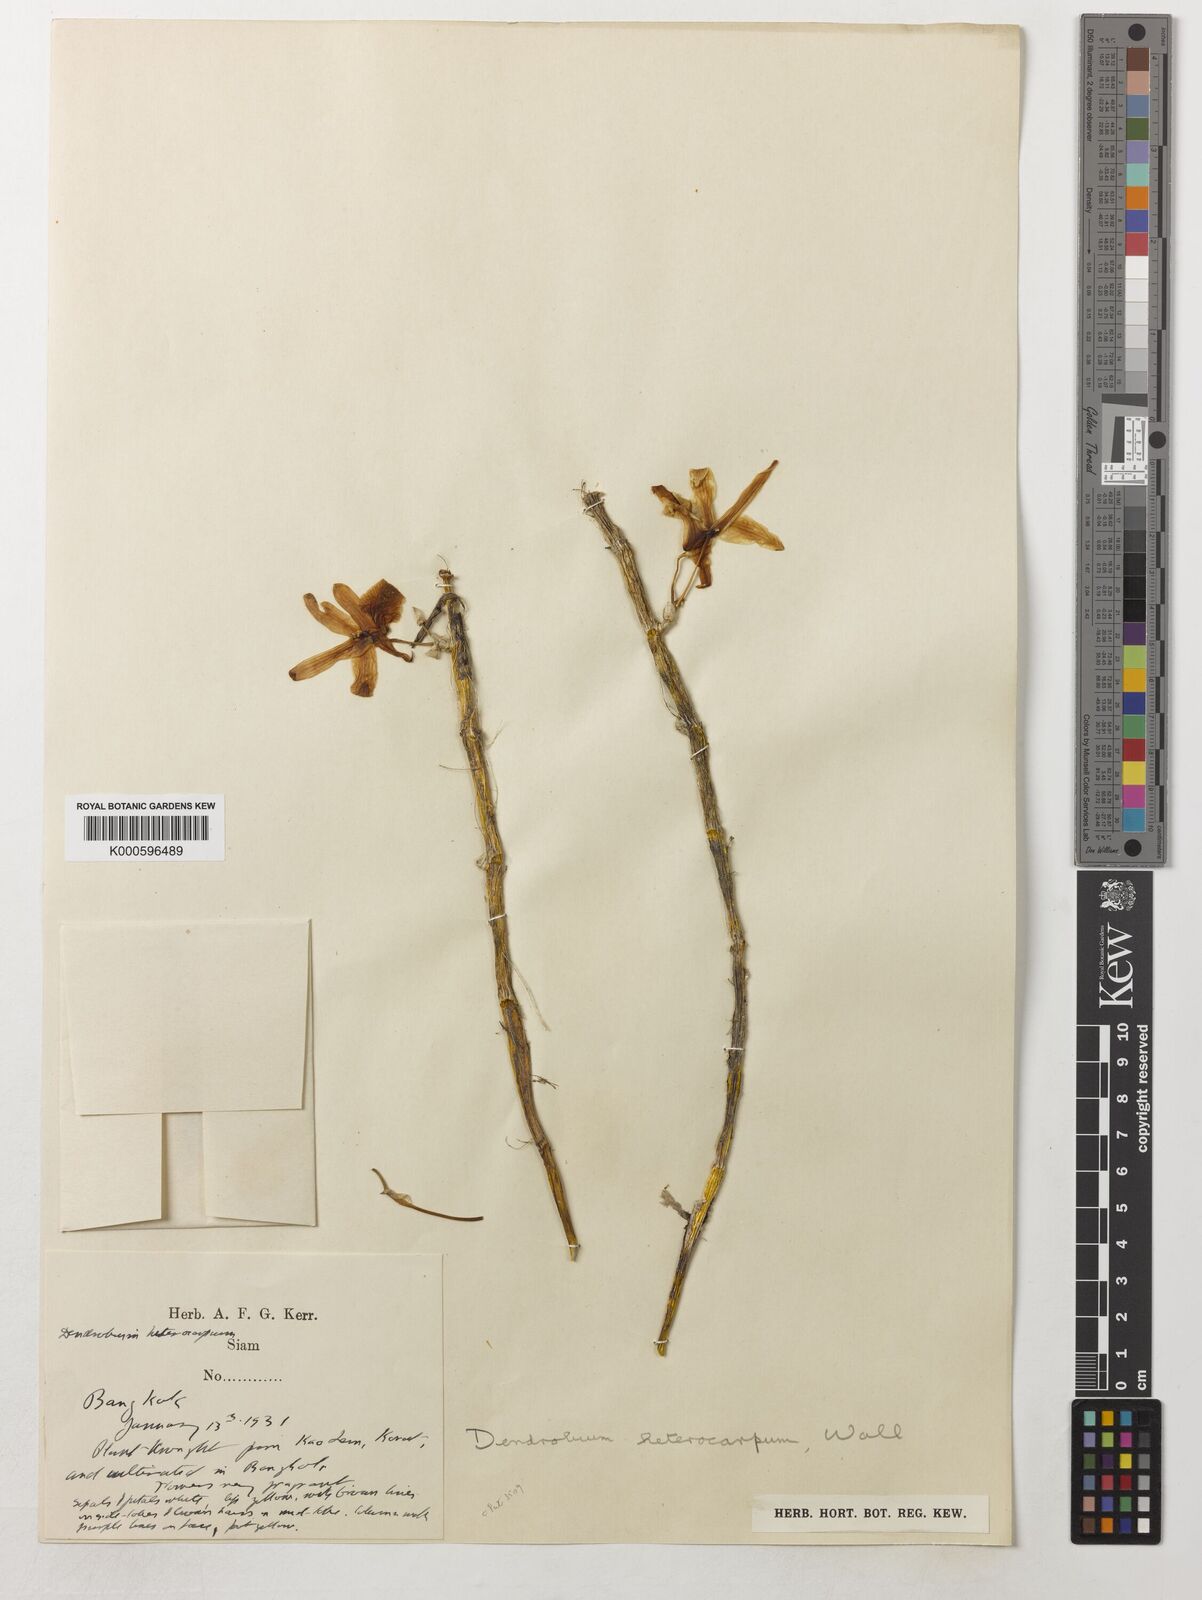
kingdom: Plantae
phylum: Tracheophyta
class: Liliopsida
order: Asparagales
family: Orchidaceae
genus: Dendrobium
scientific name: Dendrobium heterocarpum
